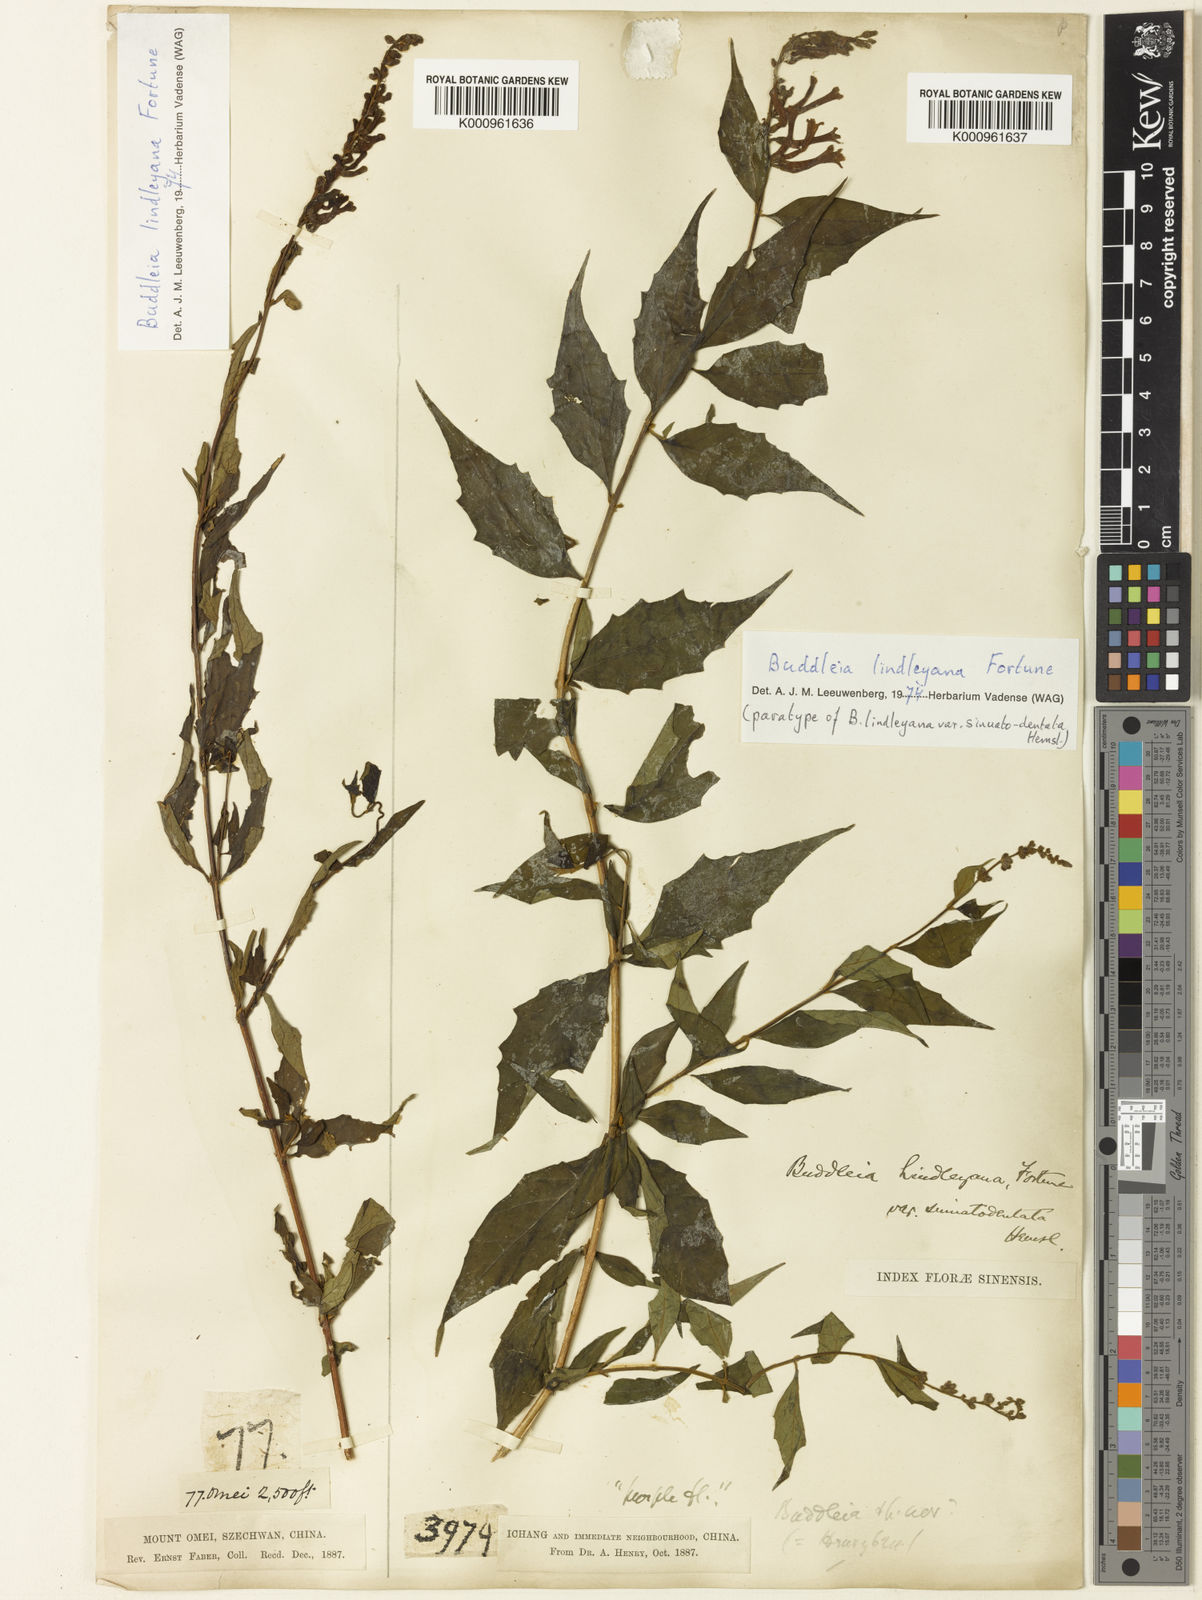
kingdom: Plantae
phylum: Tracheophyta
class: Magnoliopsida
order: Lamiales
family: Scrophulariaceae
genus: Buddleja
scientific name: Buddleja lindleyana
